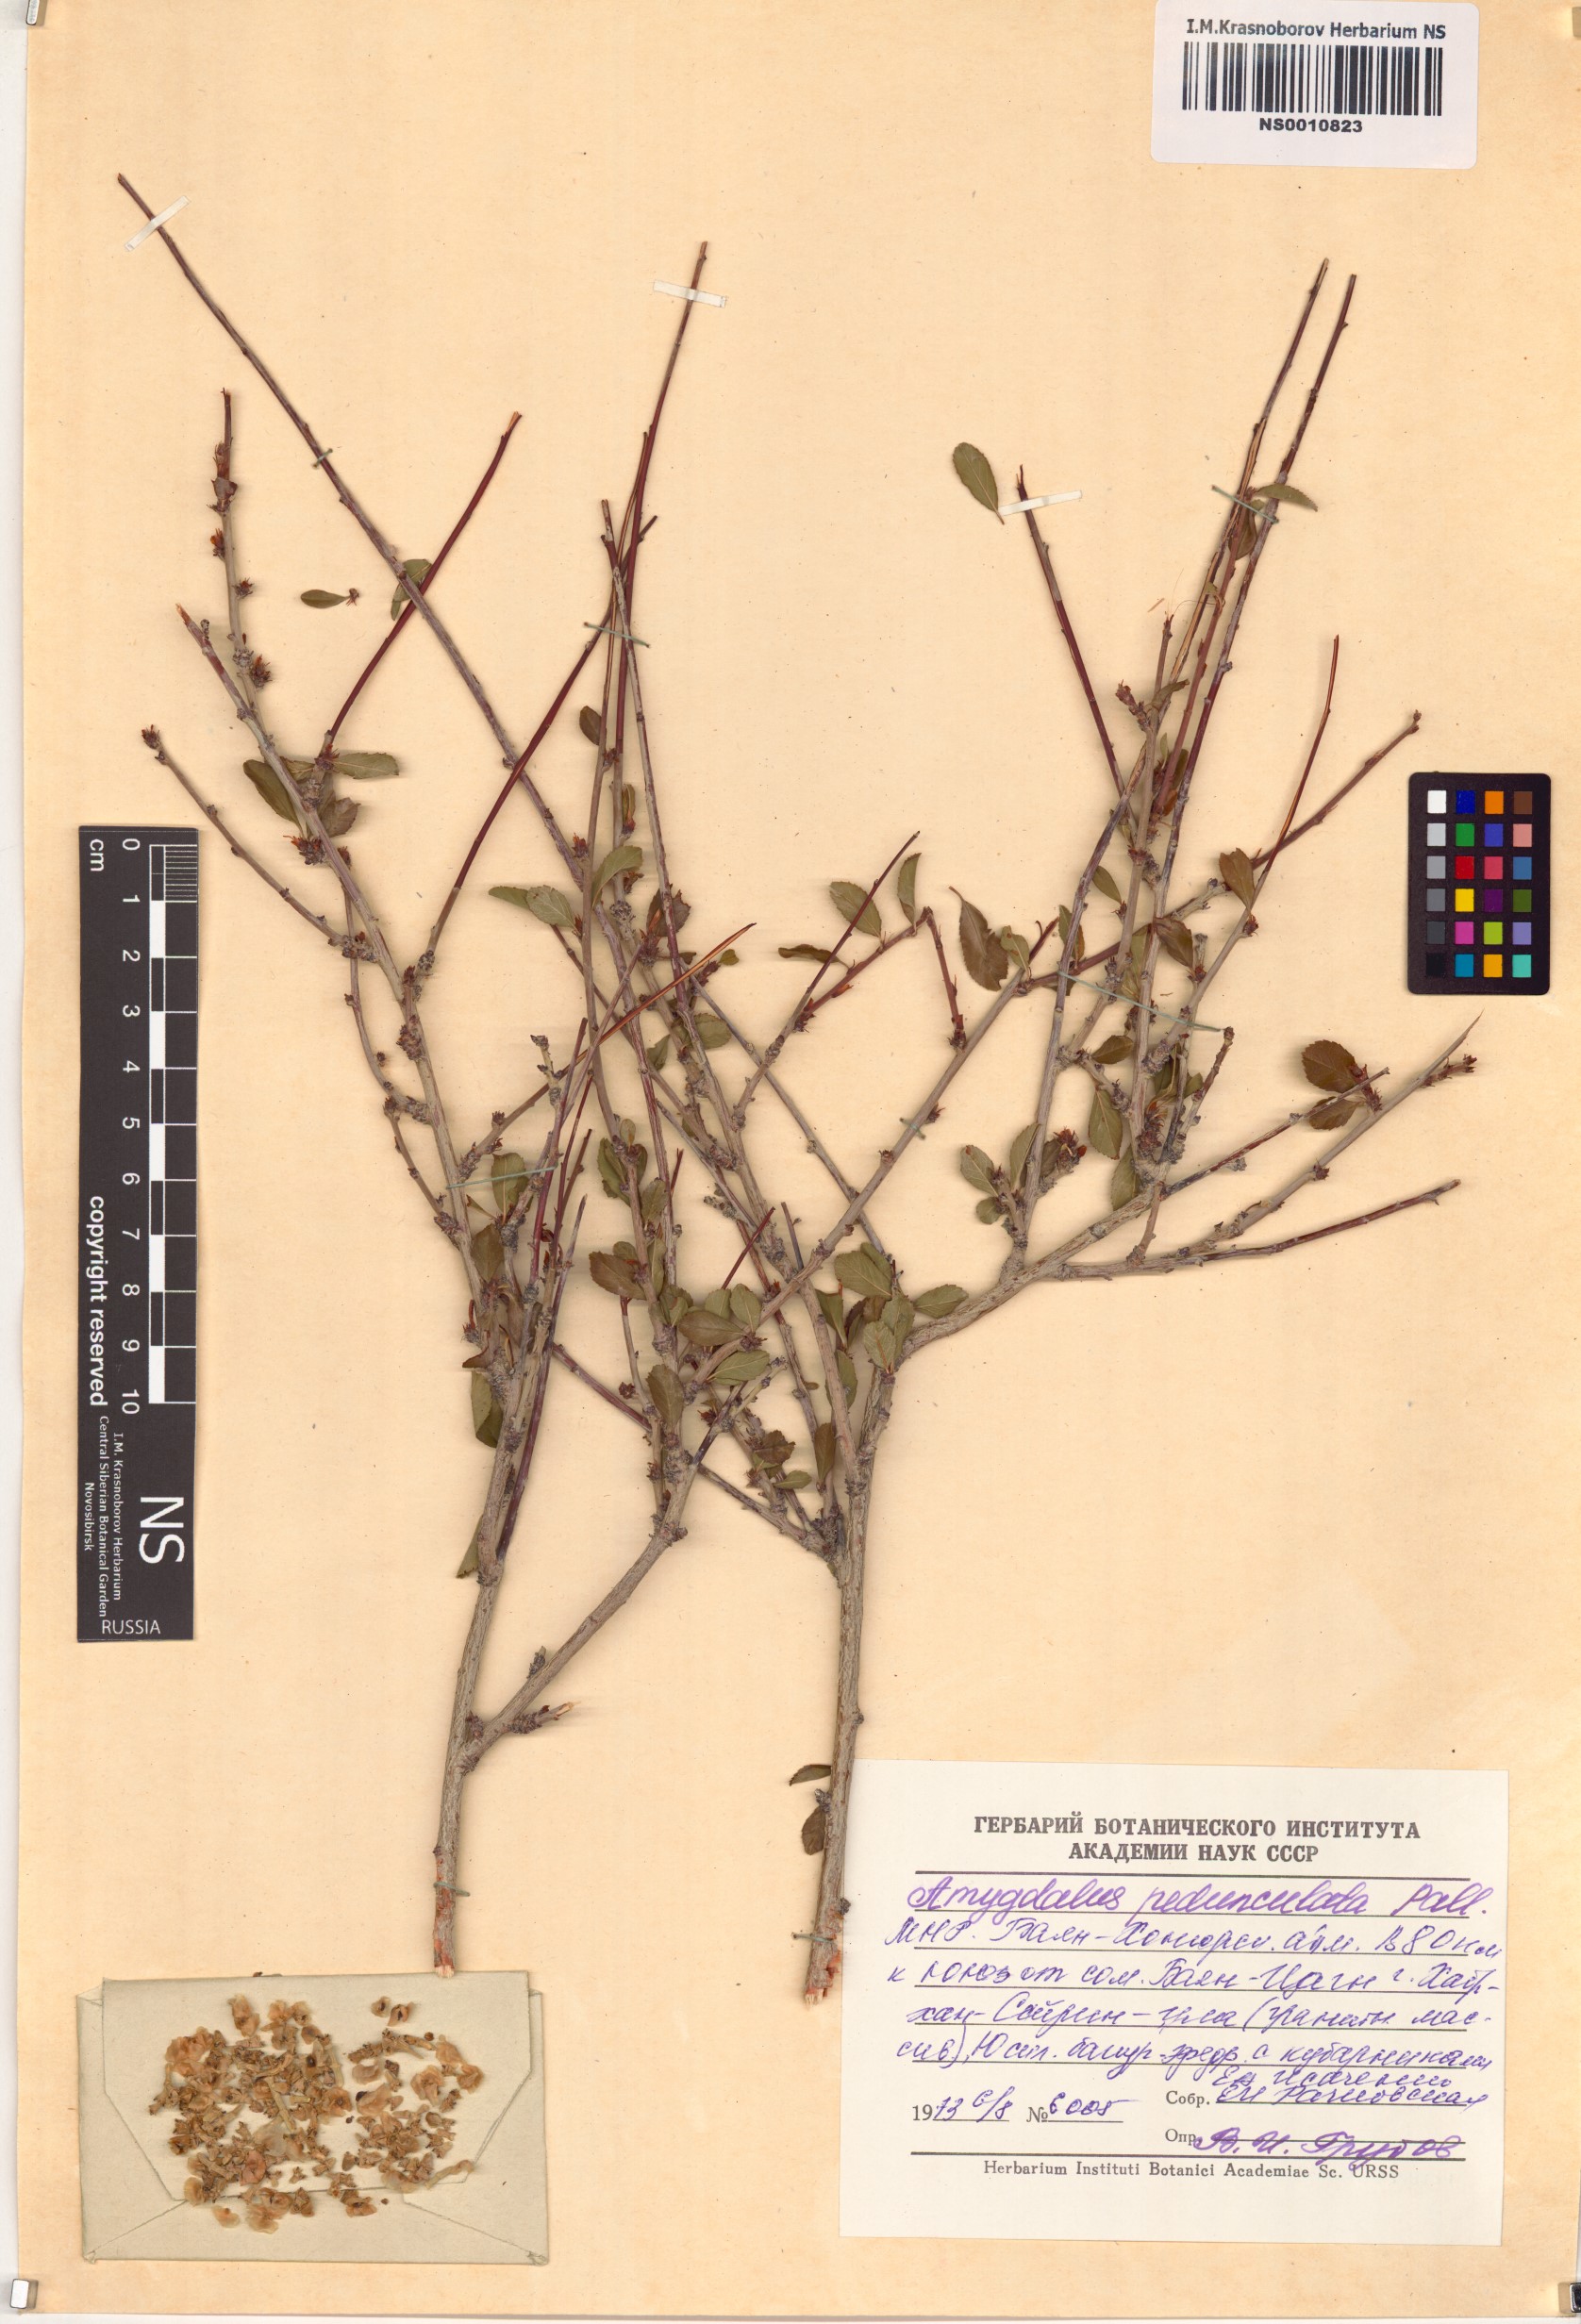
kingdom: Plantae
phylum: Tracheophyta
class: Magnoliopsida
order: Rosales
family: Rosaceae
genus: Prunus
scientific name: Prunus pedunculata
